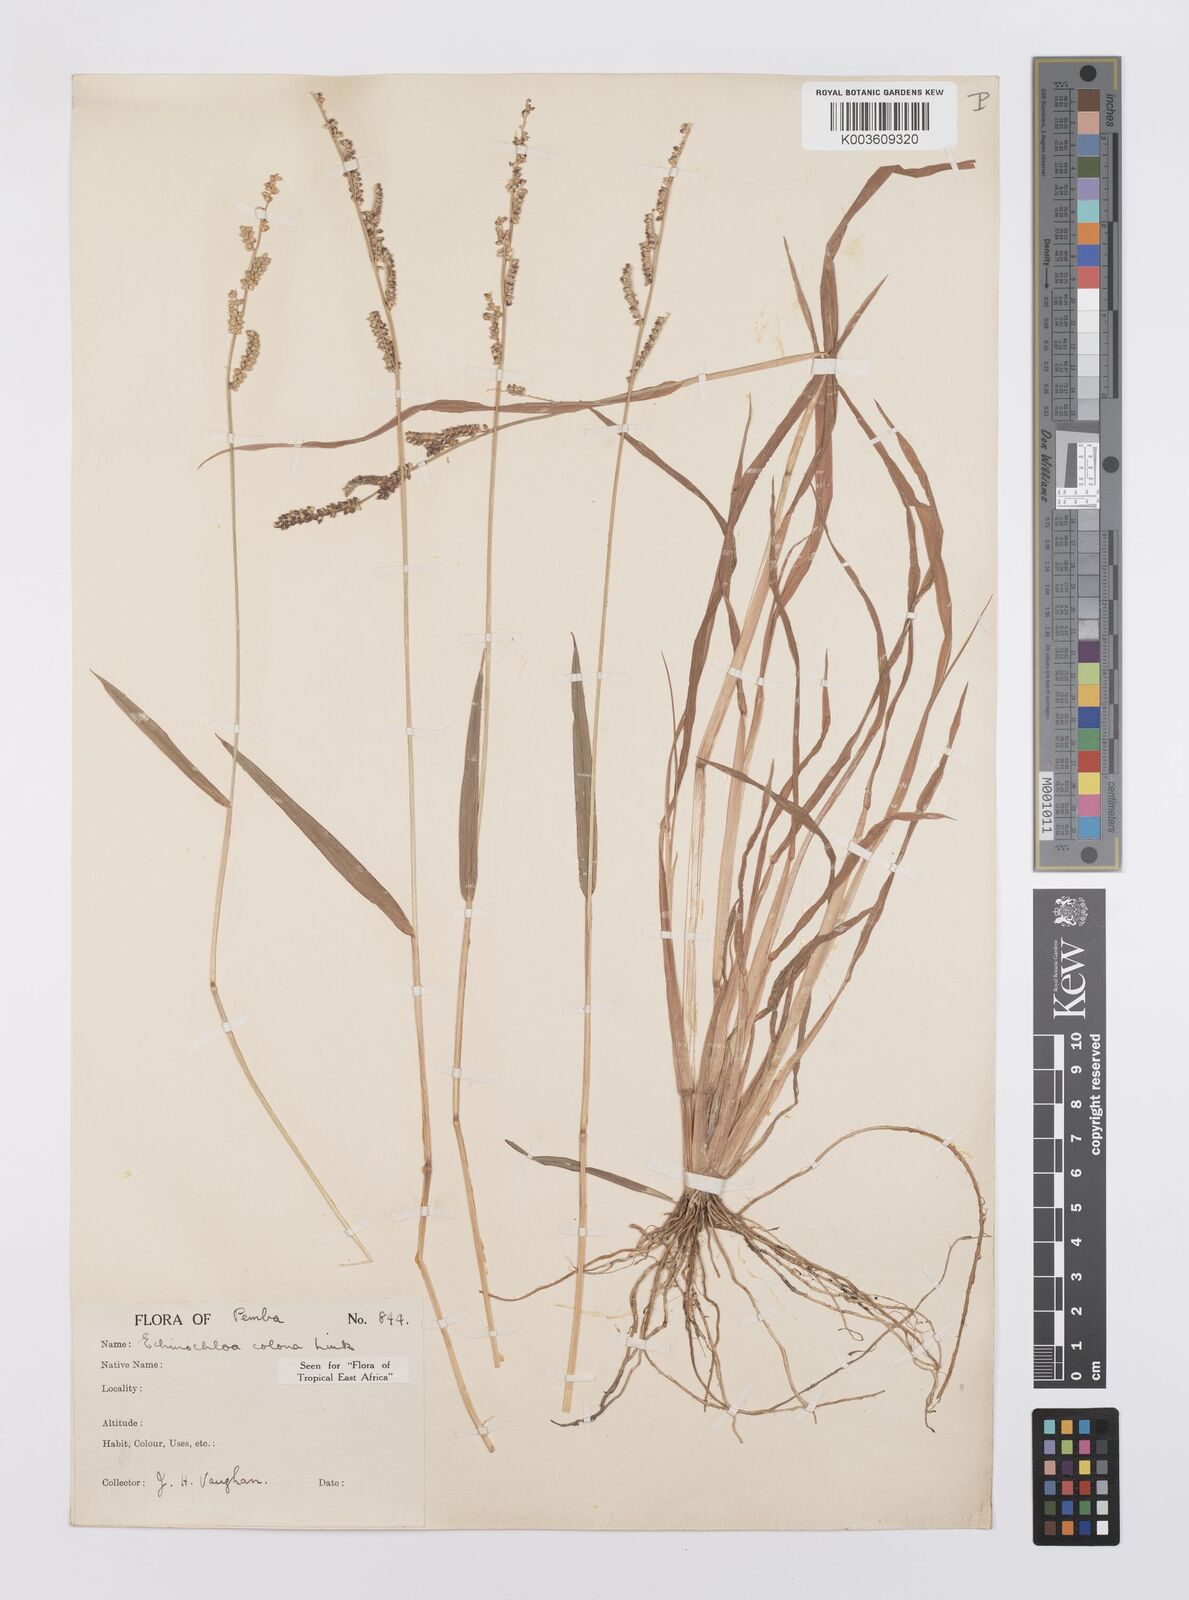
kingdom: Plantae
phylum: Tracheophyta
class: Liliopsida
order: Poales
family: Poaceae
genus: Echinochloa
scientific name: Echinochloa colonum
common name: Jungle rice
